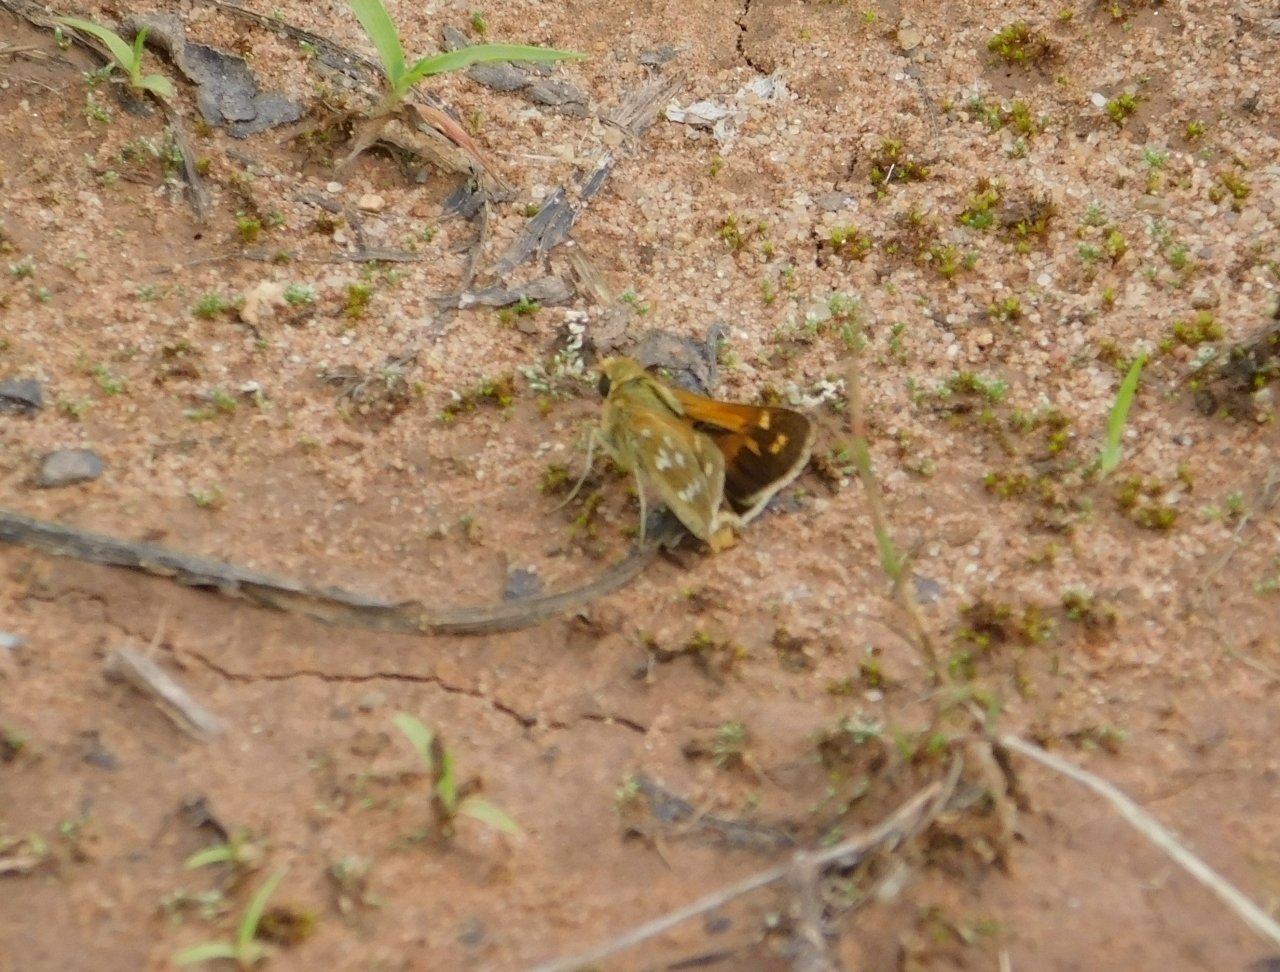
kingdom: Animalia
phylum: Arthropoda
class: Insecta
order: Lepidoptera
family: Hesperiidae
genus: Hesperia
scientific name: Hesperia comma
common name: Common Branded Skipper
